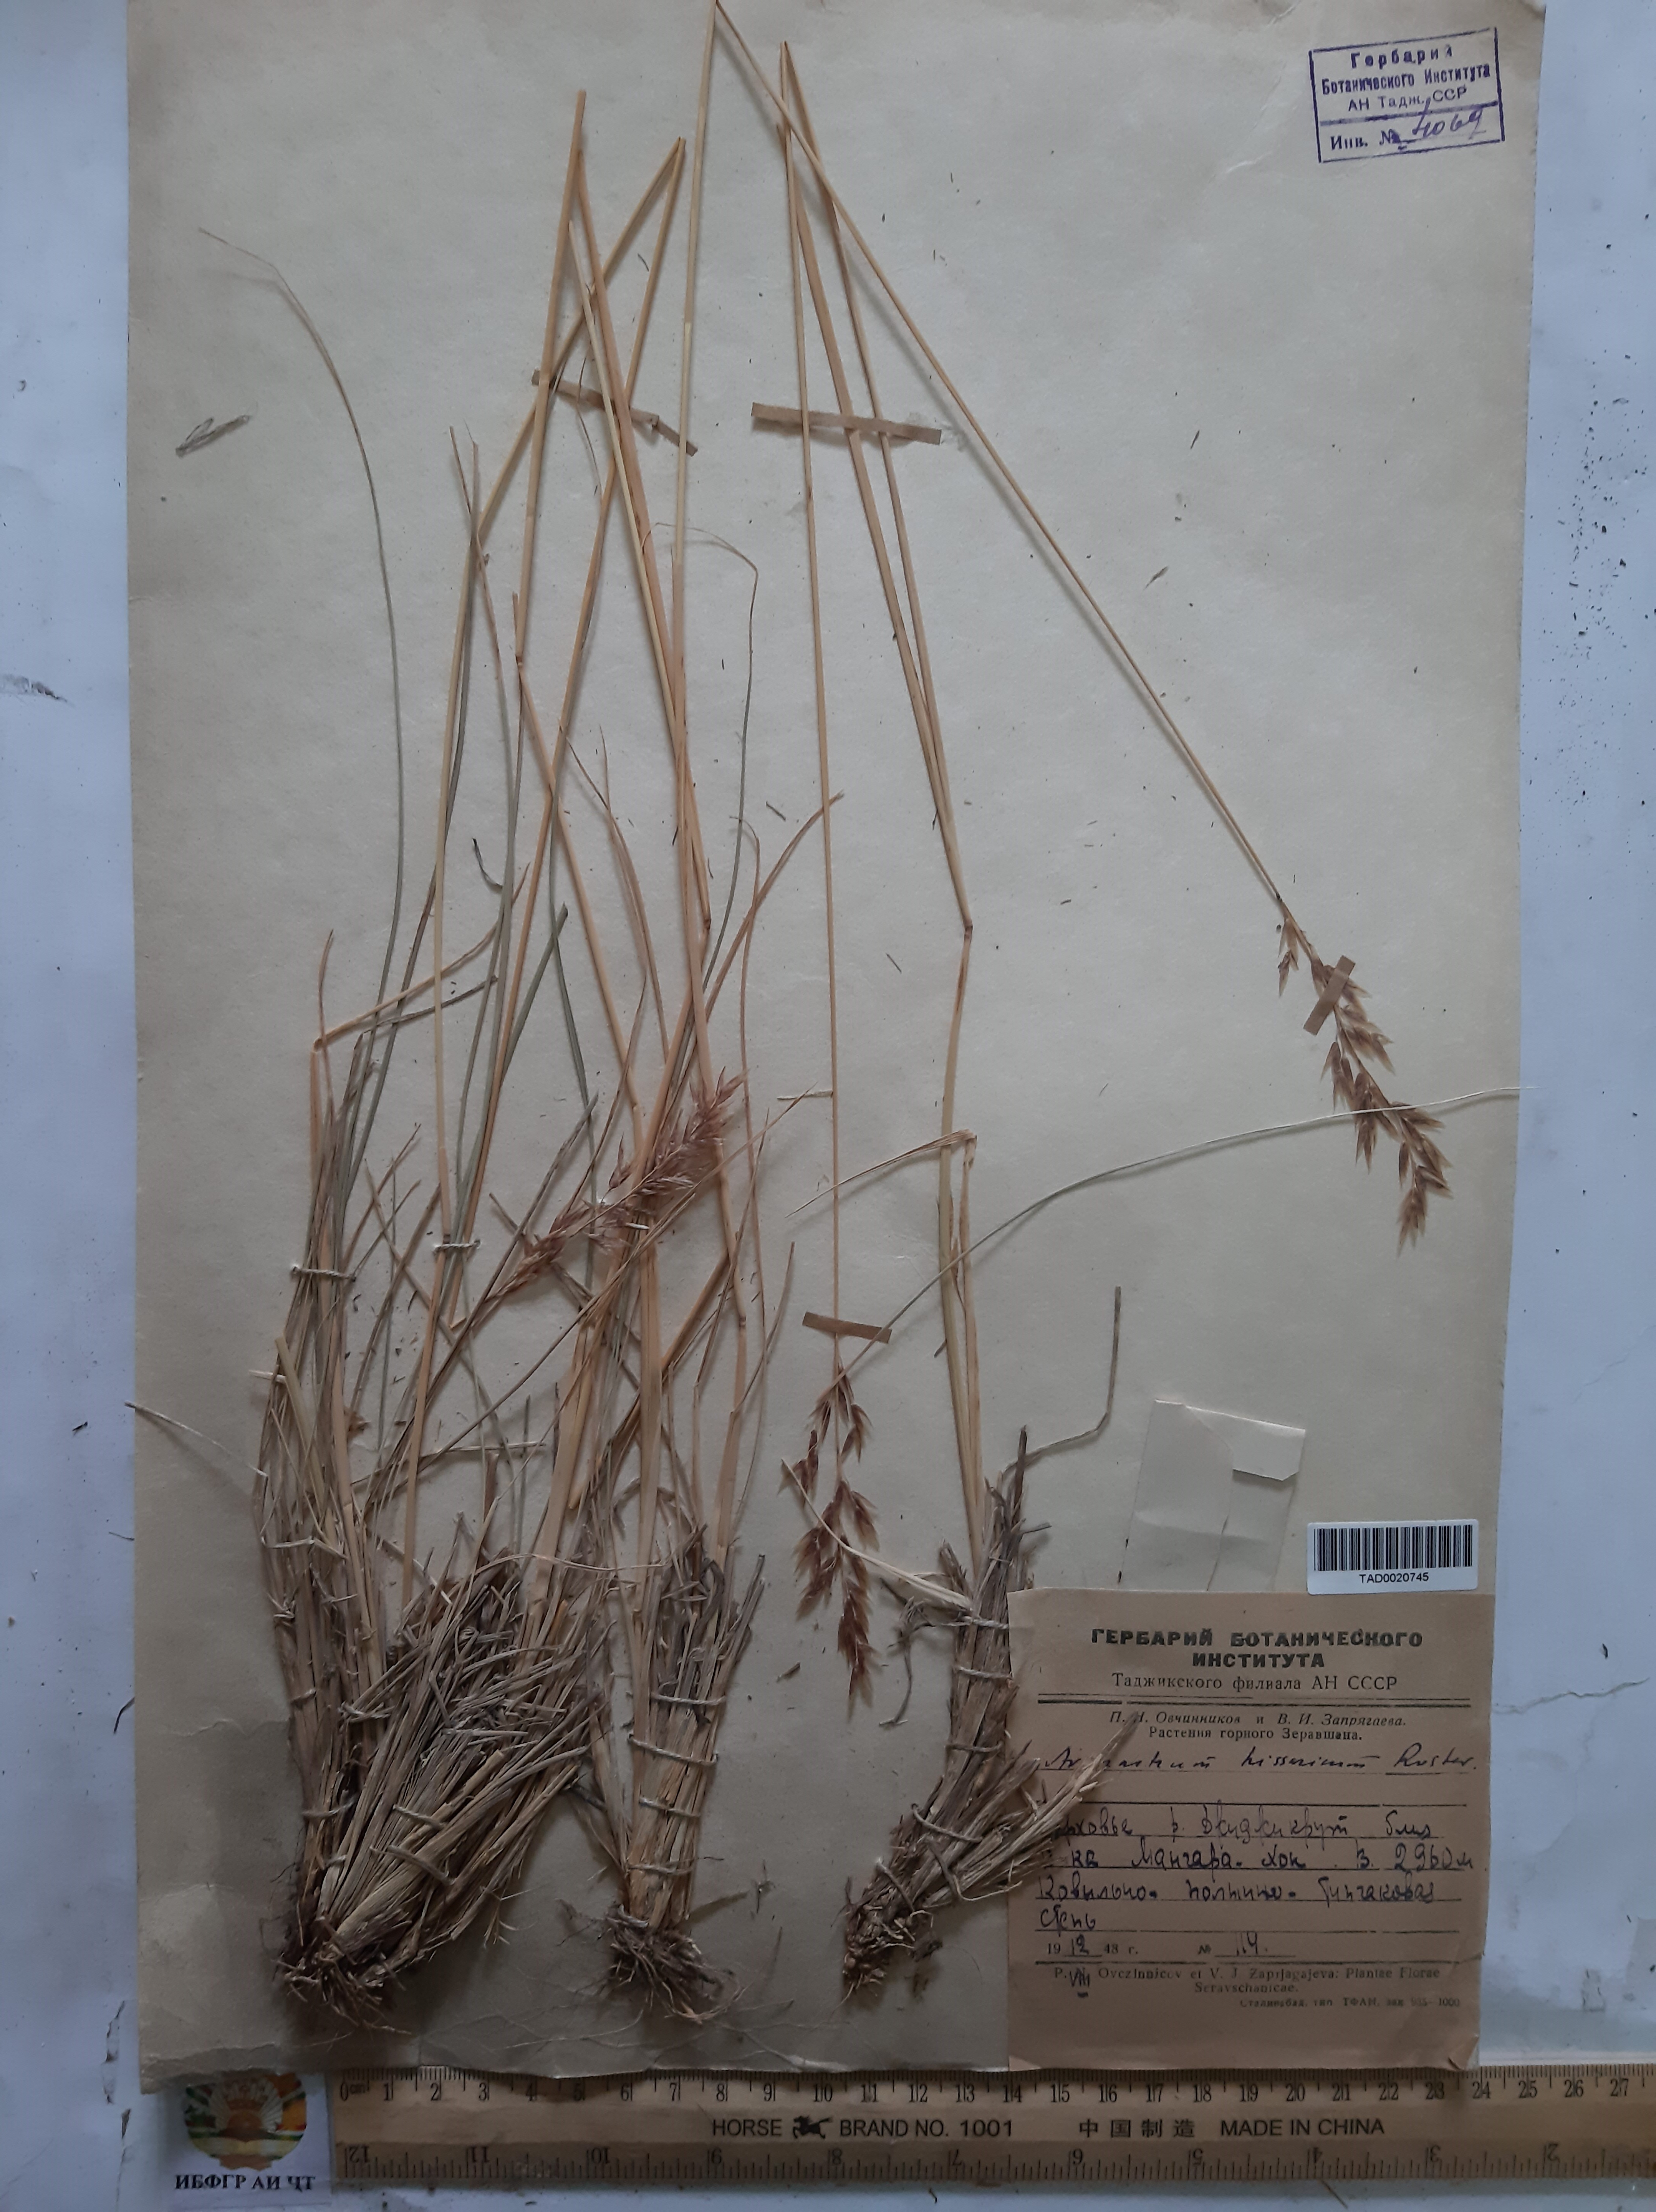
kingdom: Plantae
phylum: Tracheophyta
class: Liliopsida
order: Poales
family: Poaceae
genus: Helictotrichon
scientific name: Helictotrichon hissaricum
